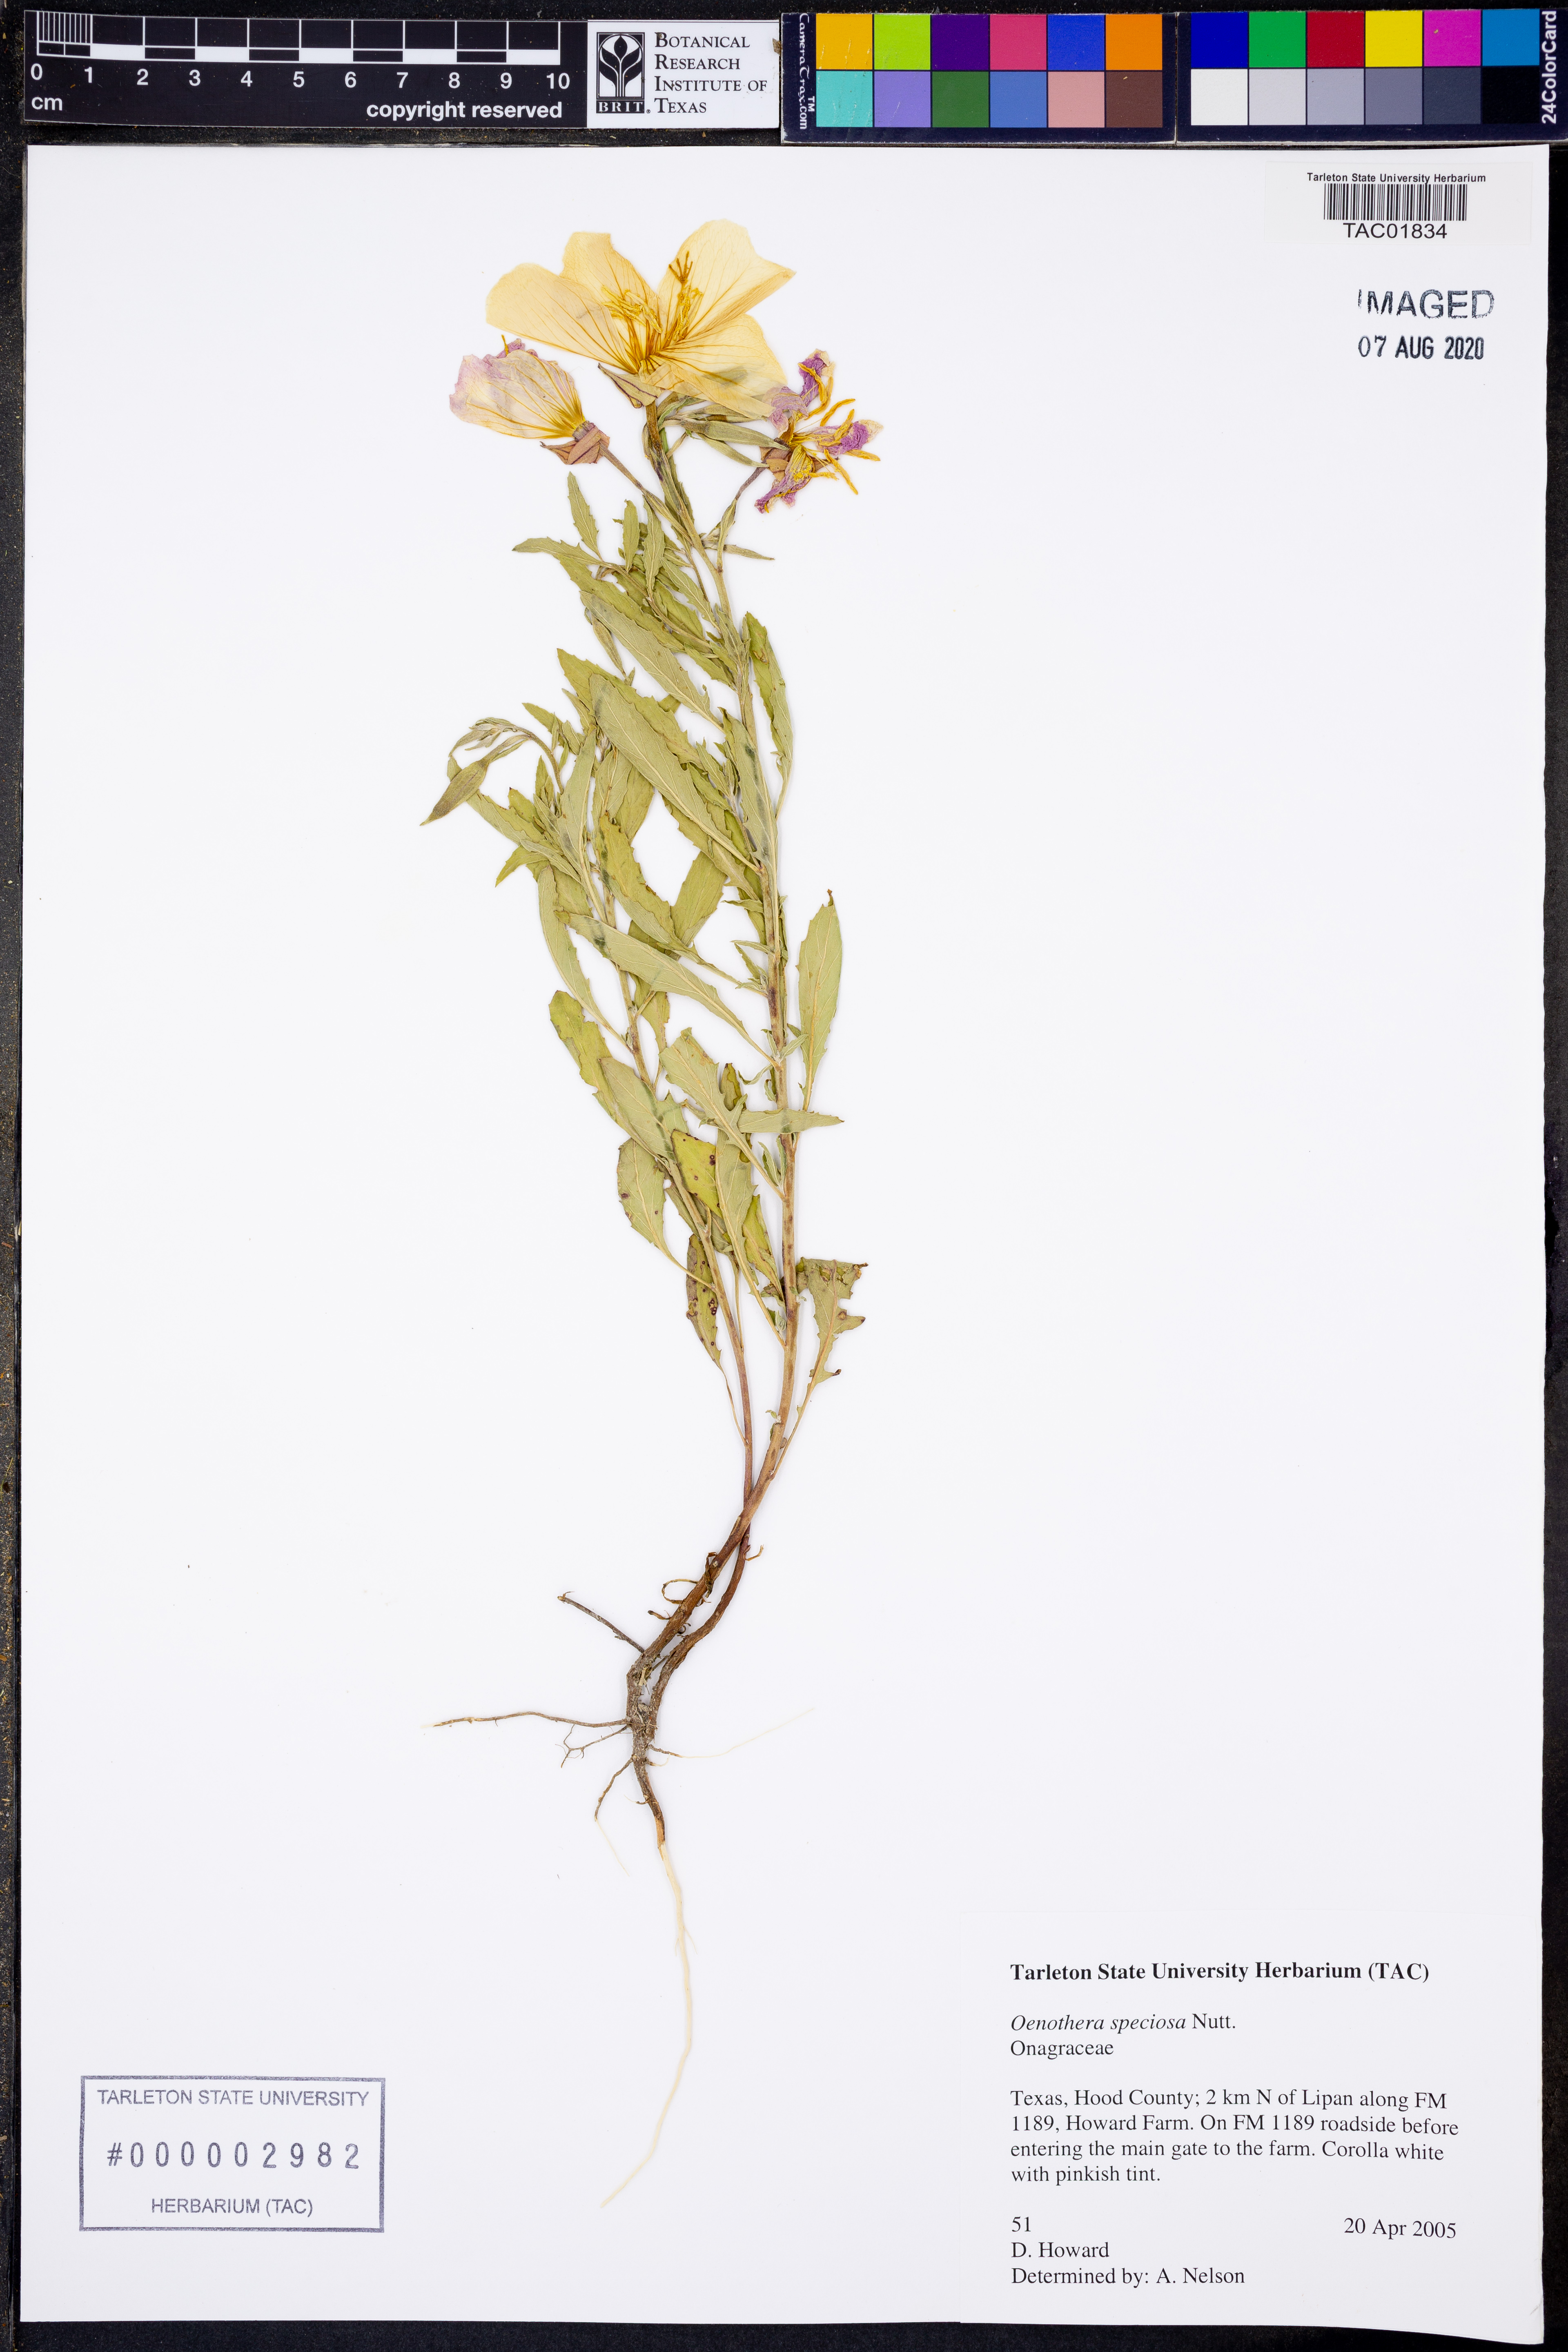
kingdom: Plantae
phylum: Tracheophyta
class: Magnoliopsida
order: Myrtales
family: Onagraceae
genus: Oenothera
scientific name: Oenothera speciosa
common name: White evening-primrose
